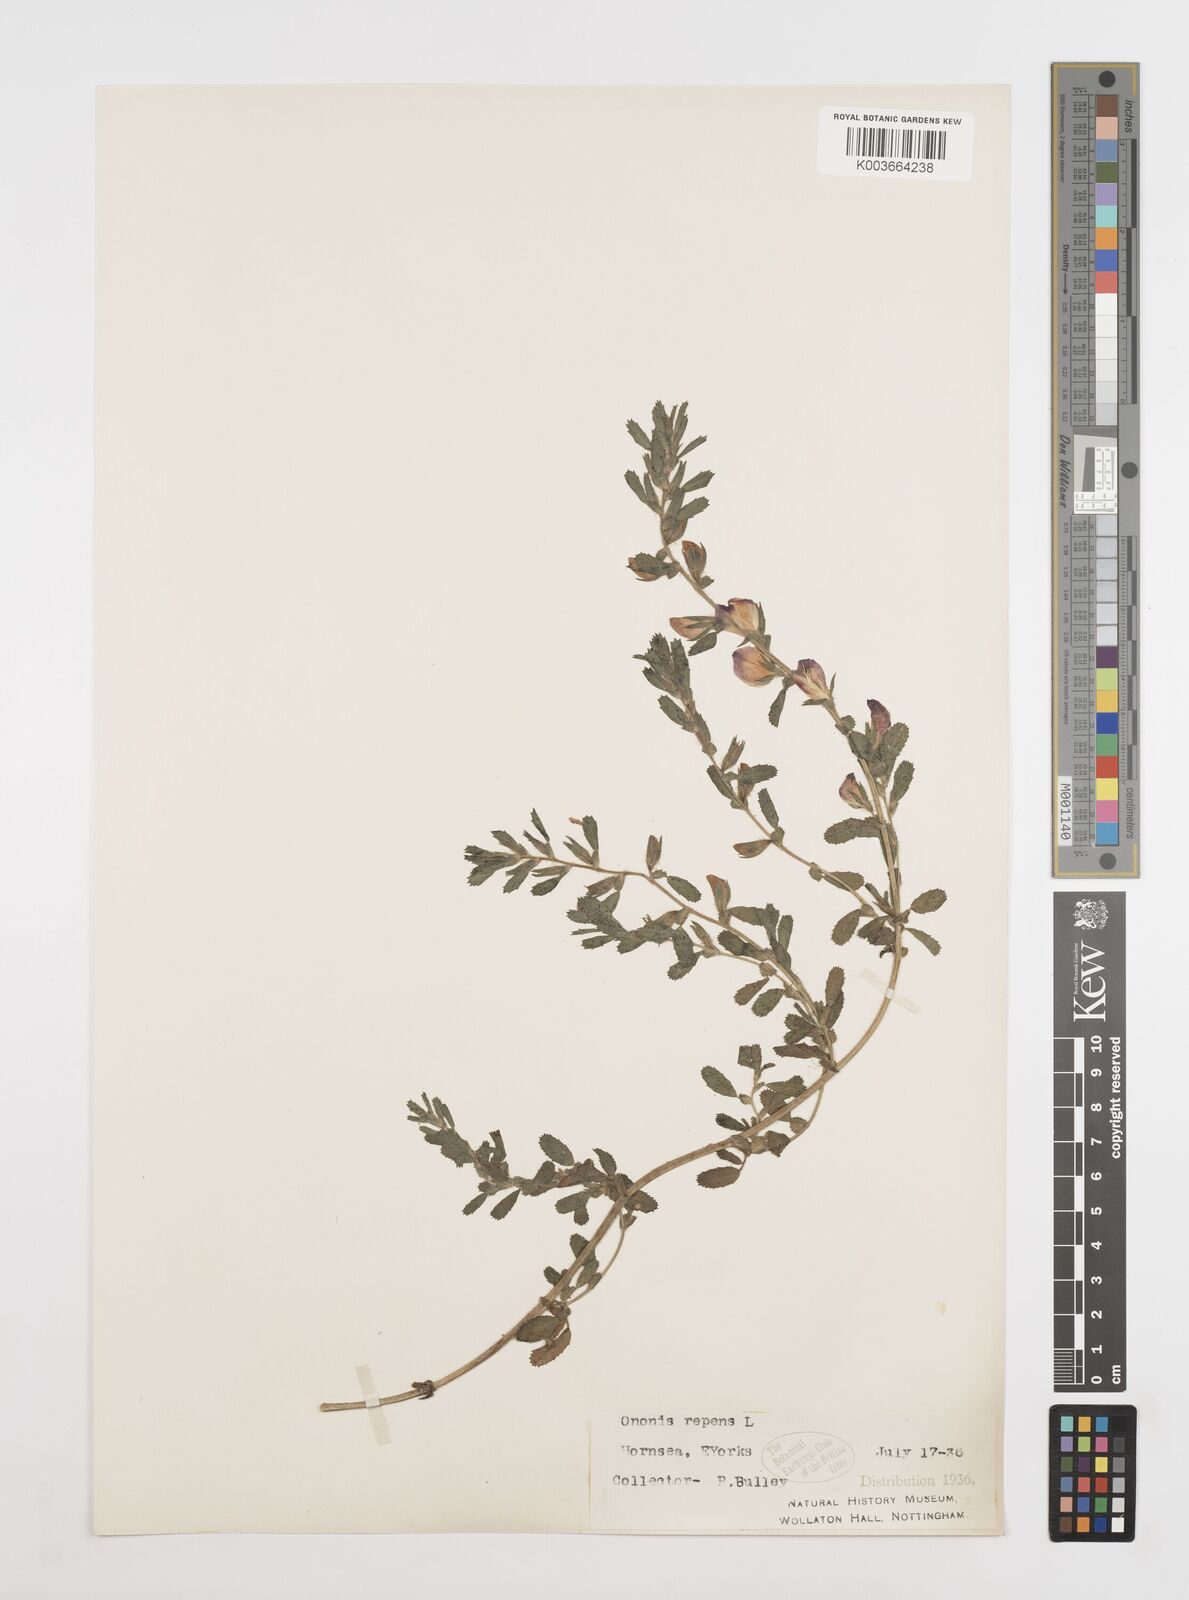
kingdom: Plantae
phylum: Tracheophyta
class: Magnoliopsida
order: Fabales
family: Fabaceae
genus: Ononis
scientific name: Ononis spinosa
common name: Spiny restharrow
